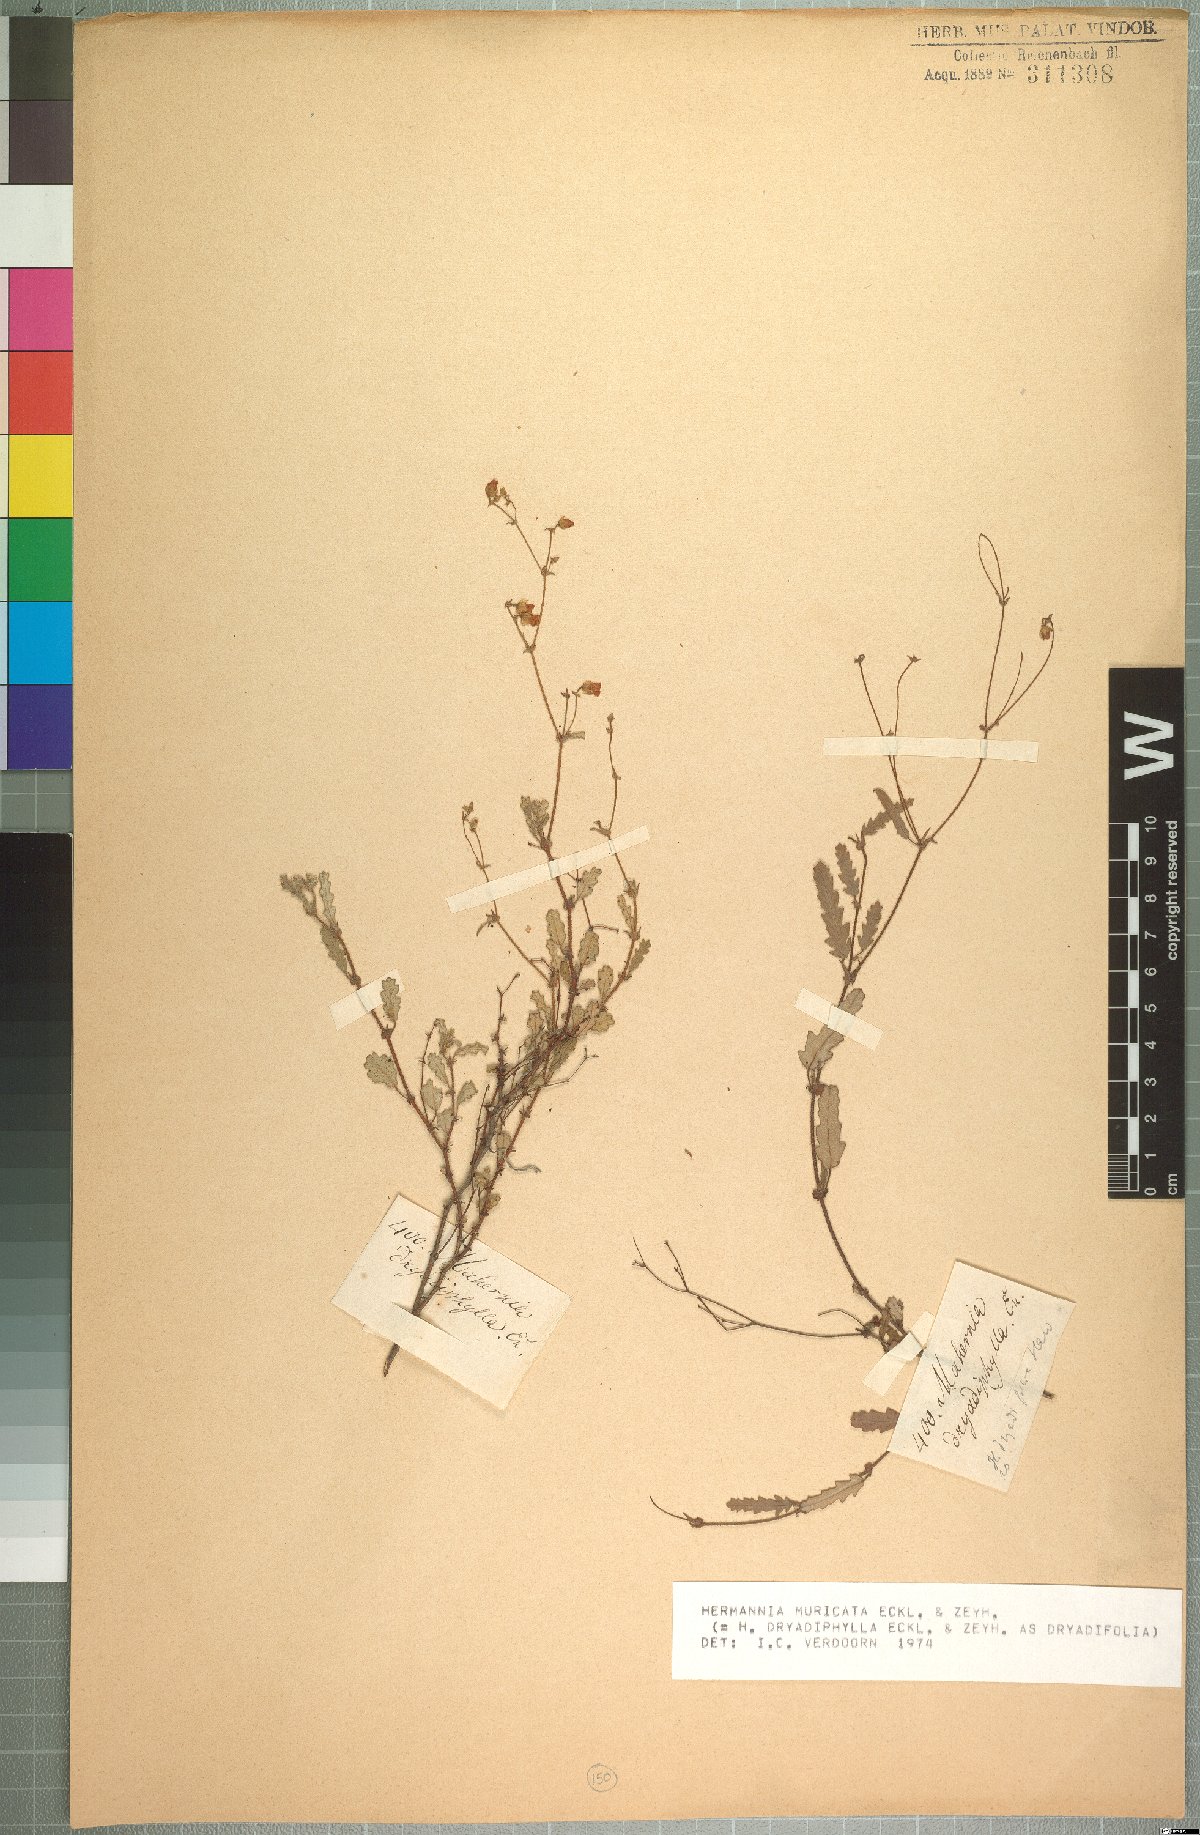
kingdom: Plantae
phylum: Tracheophyta
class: Magnoliopsida
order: Malvales
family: Malvaceae
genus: Hermannia
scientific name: Hermannia muricata
